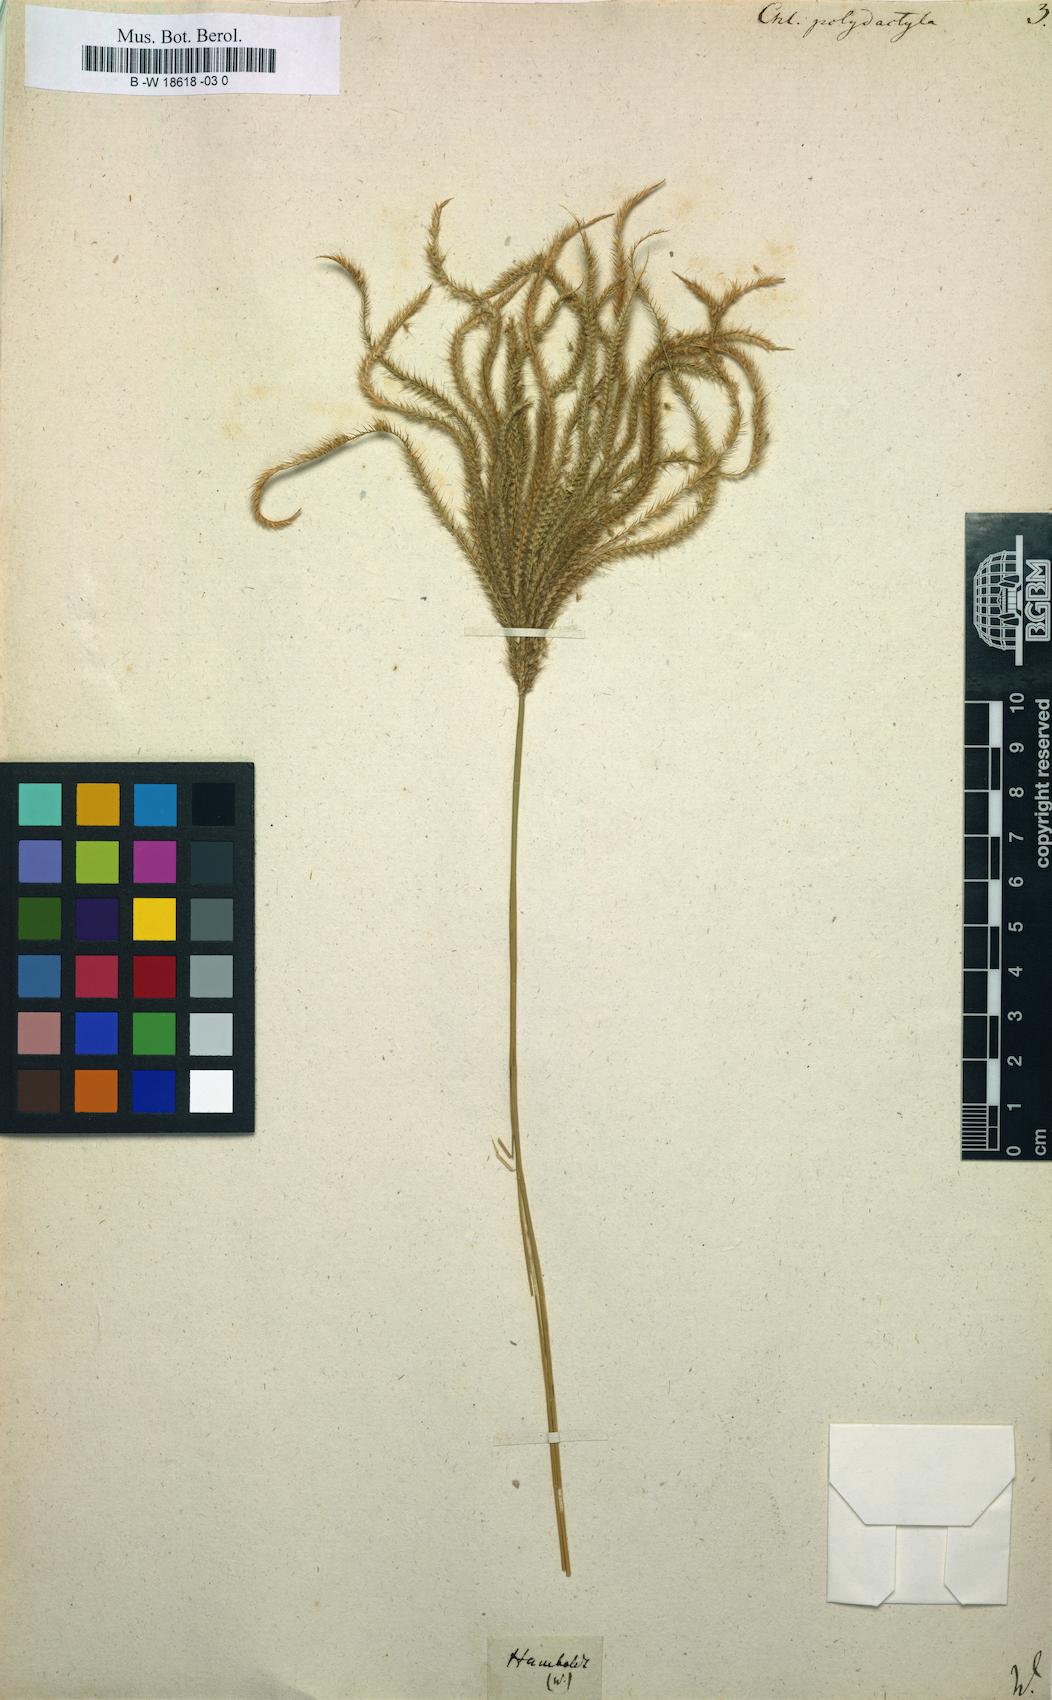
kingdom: Plantae
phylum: Tracheophyta
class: Liliopsida
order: Poales
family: Poaceae
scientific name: Poaceae
